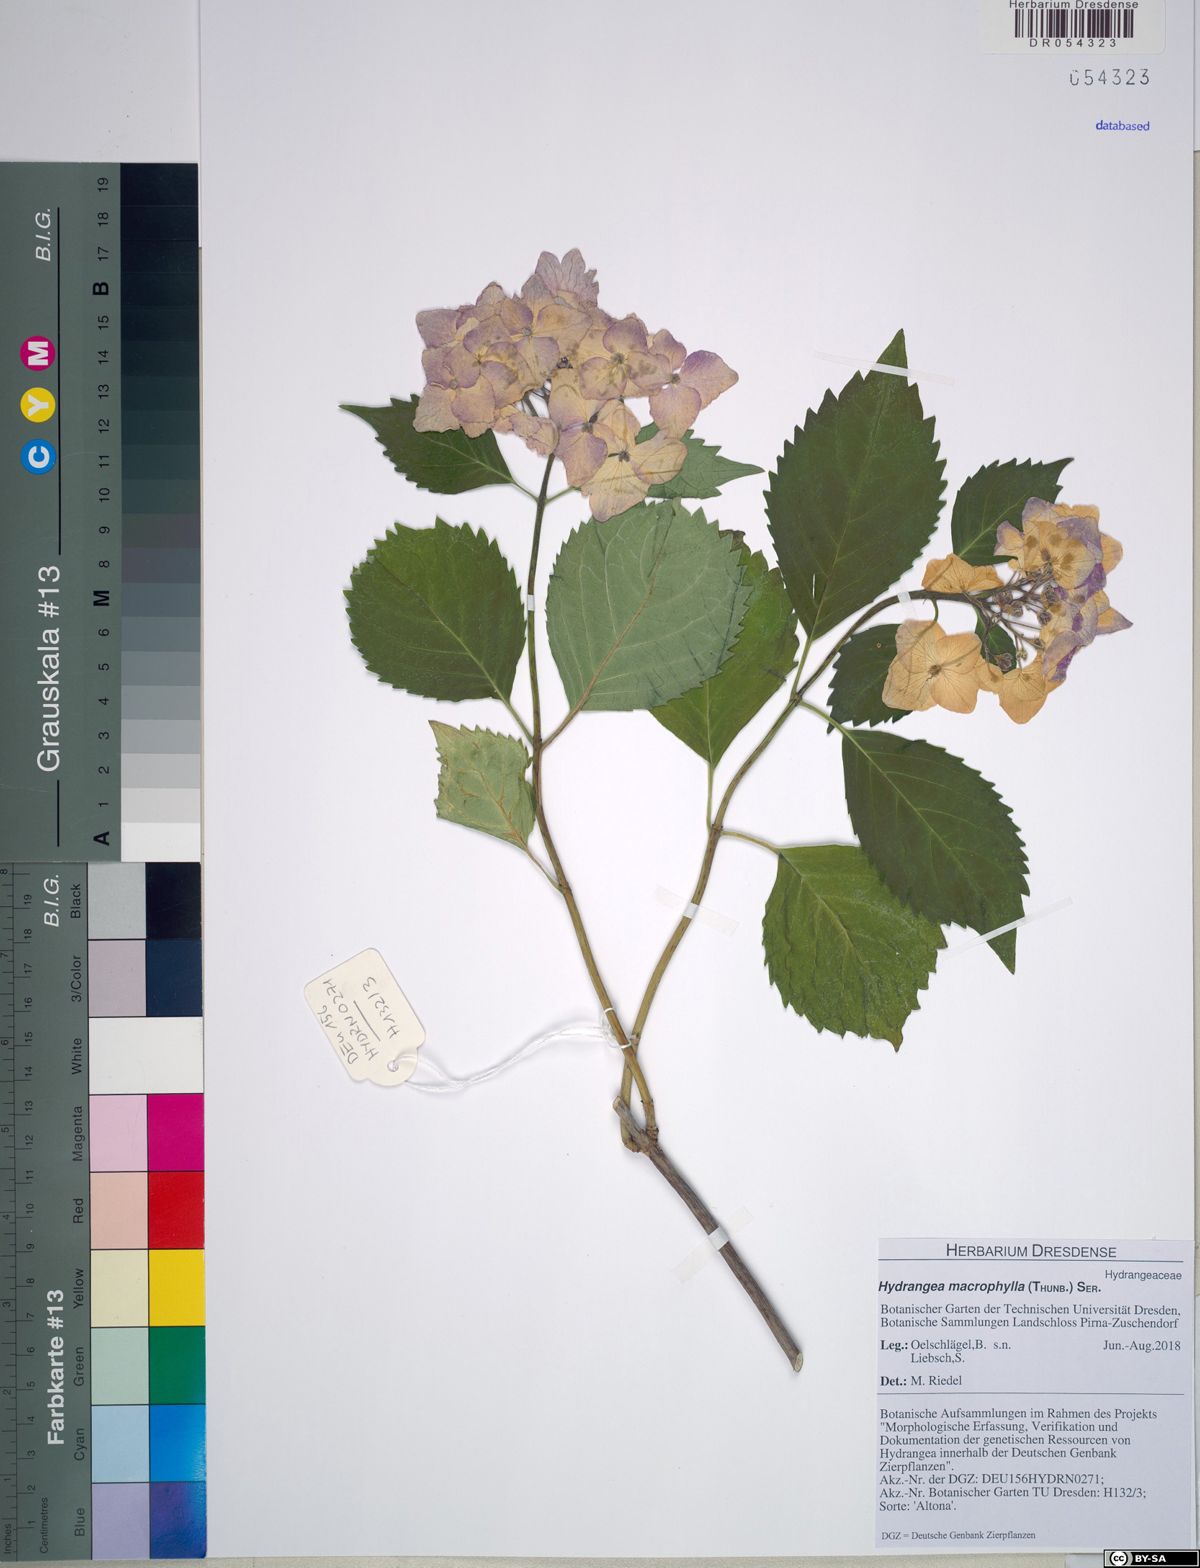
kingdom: Plantae
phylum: Tracheophyta
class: Magnoliopsida
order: Cornales
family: Hydrangeaceae
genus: Hydrangea
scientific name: Hydrangea macrophylla
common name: Hydrangea
